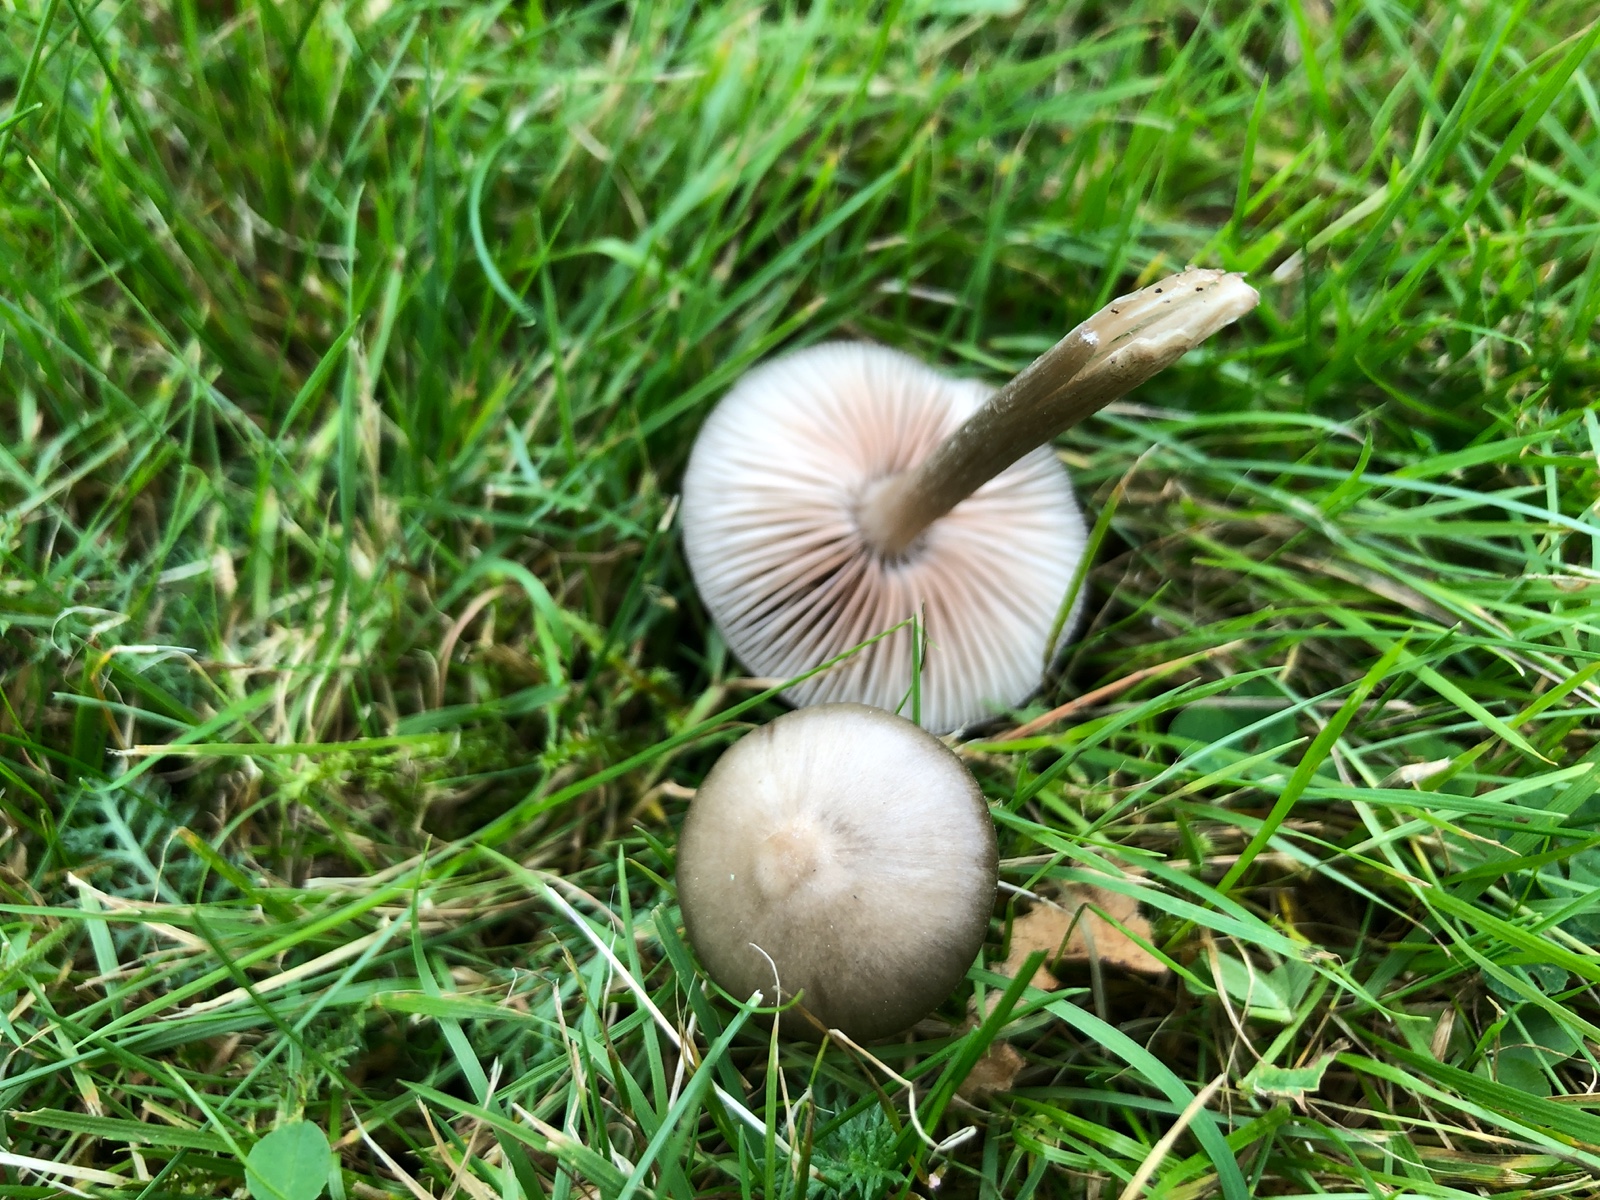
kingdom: Fungi
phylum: Basidiomycota
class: Agaricomycetes
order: Agaricales
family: Entolomataceae
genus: Entoloma
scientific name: Entoloma sericeum
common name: silkeglinsende rødblad
